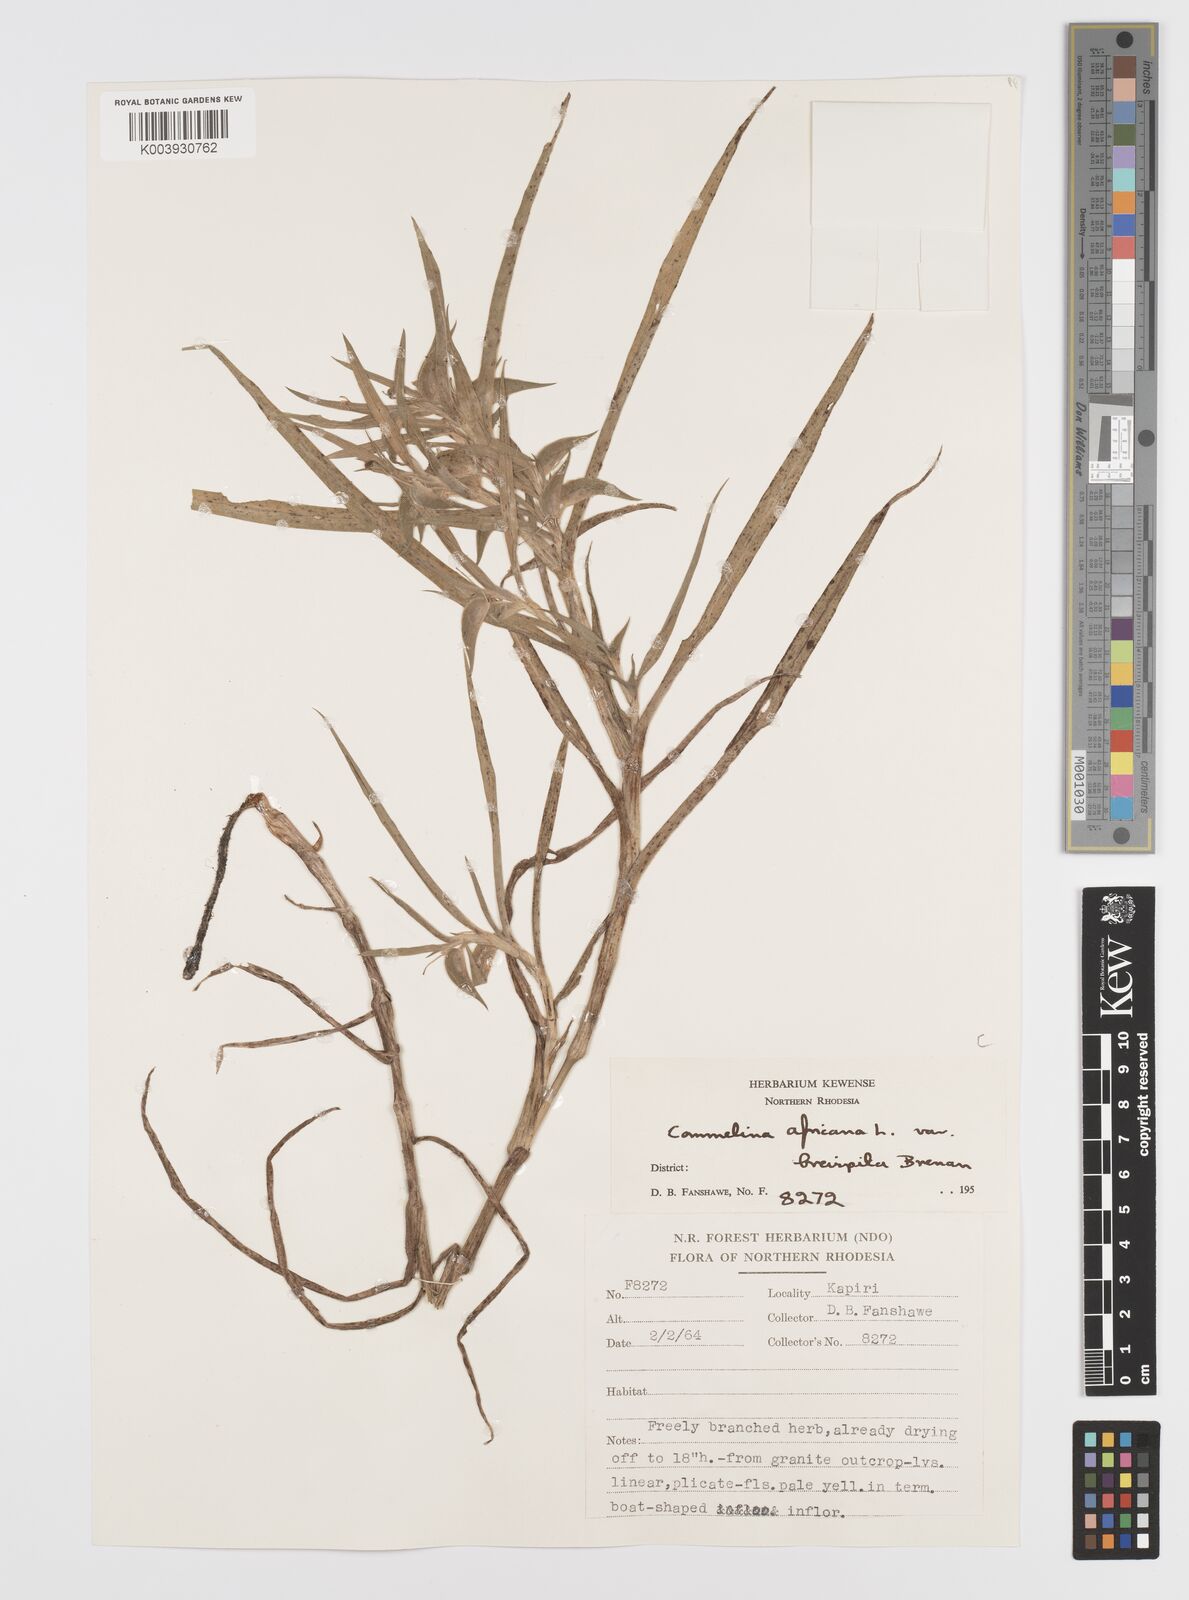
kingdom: Plantae
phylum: Tracheophyta
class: Liliopsida
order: Commelinales
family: Commelinaceae
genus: Commelina
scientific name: Commelina africana
